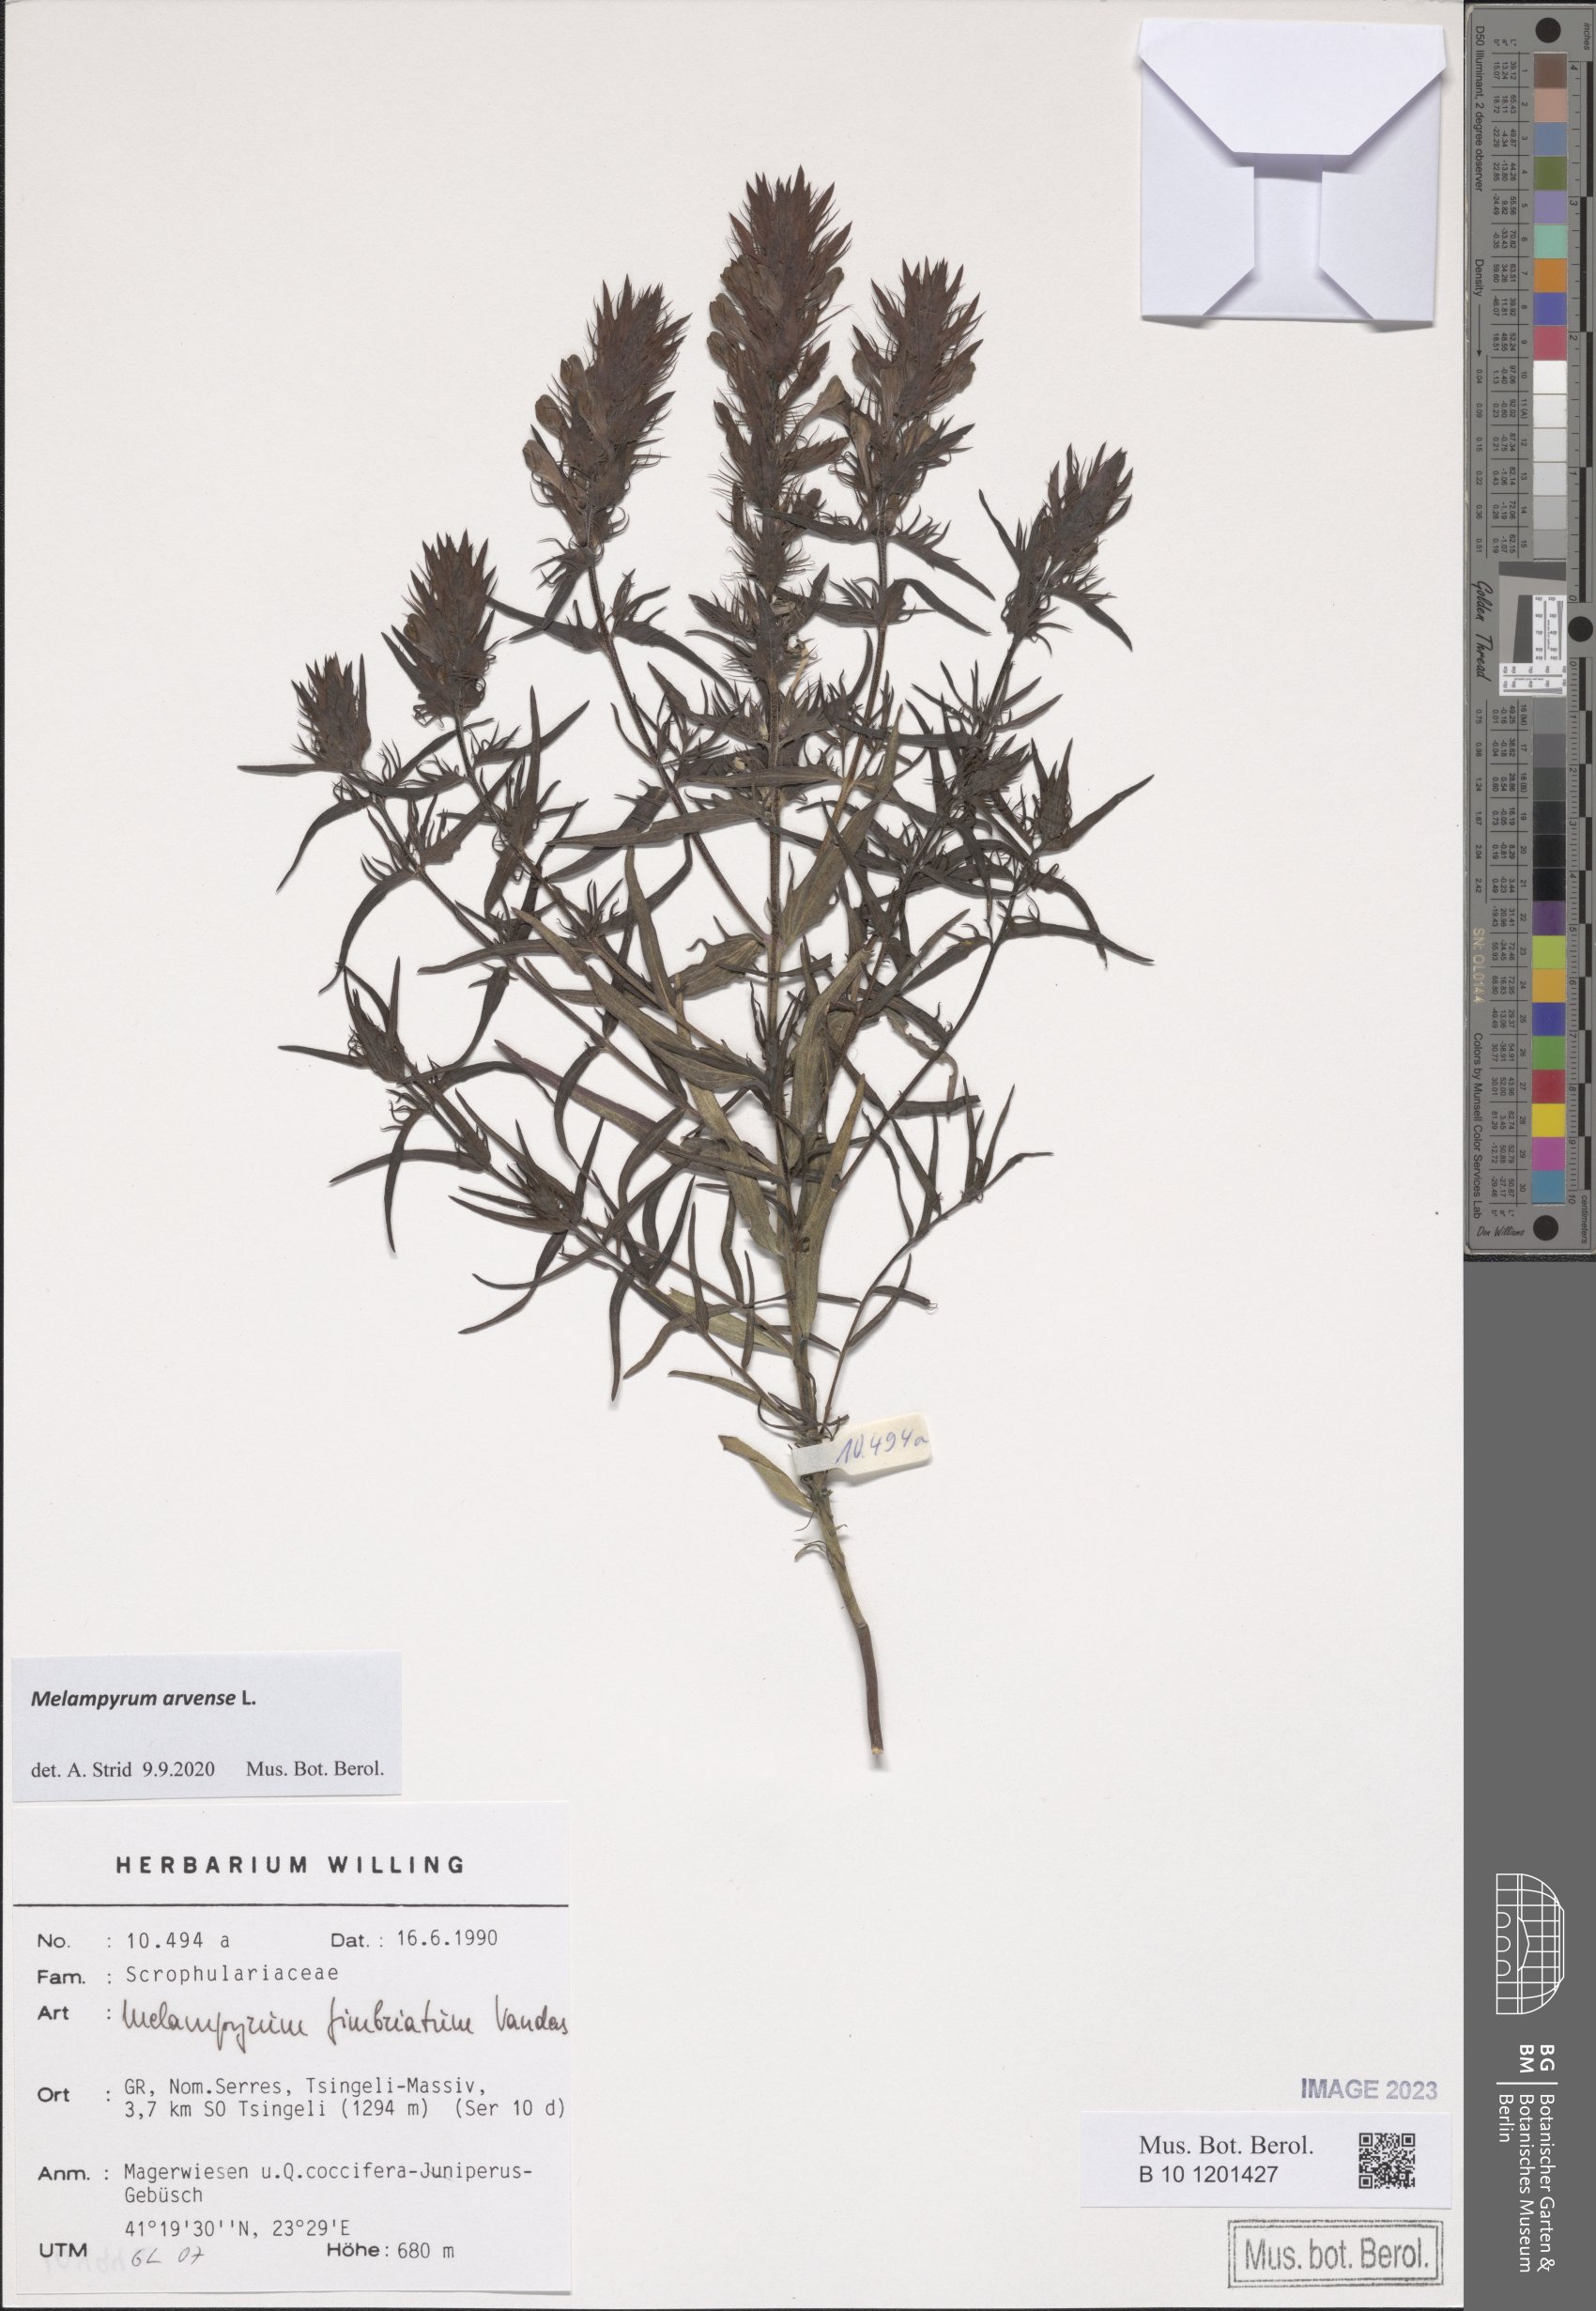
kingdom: Plantae
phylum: Tracheophyta
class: Magnoliopsida
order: Lamiales
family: Orobanchaceae
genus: Melampyrum
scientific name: Melampyrum arvense
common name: Field cow-wheat
